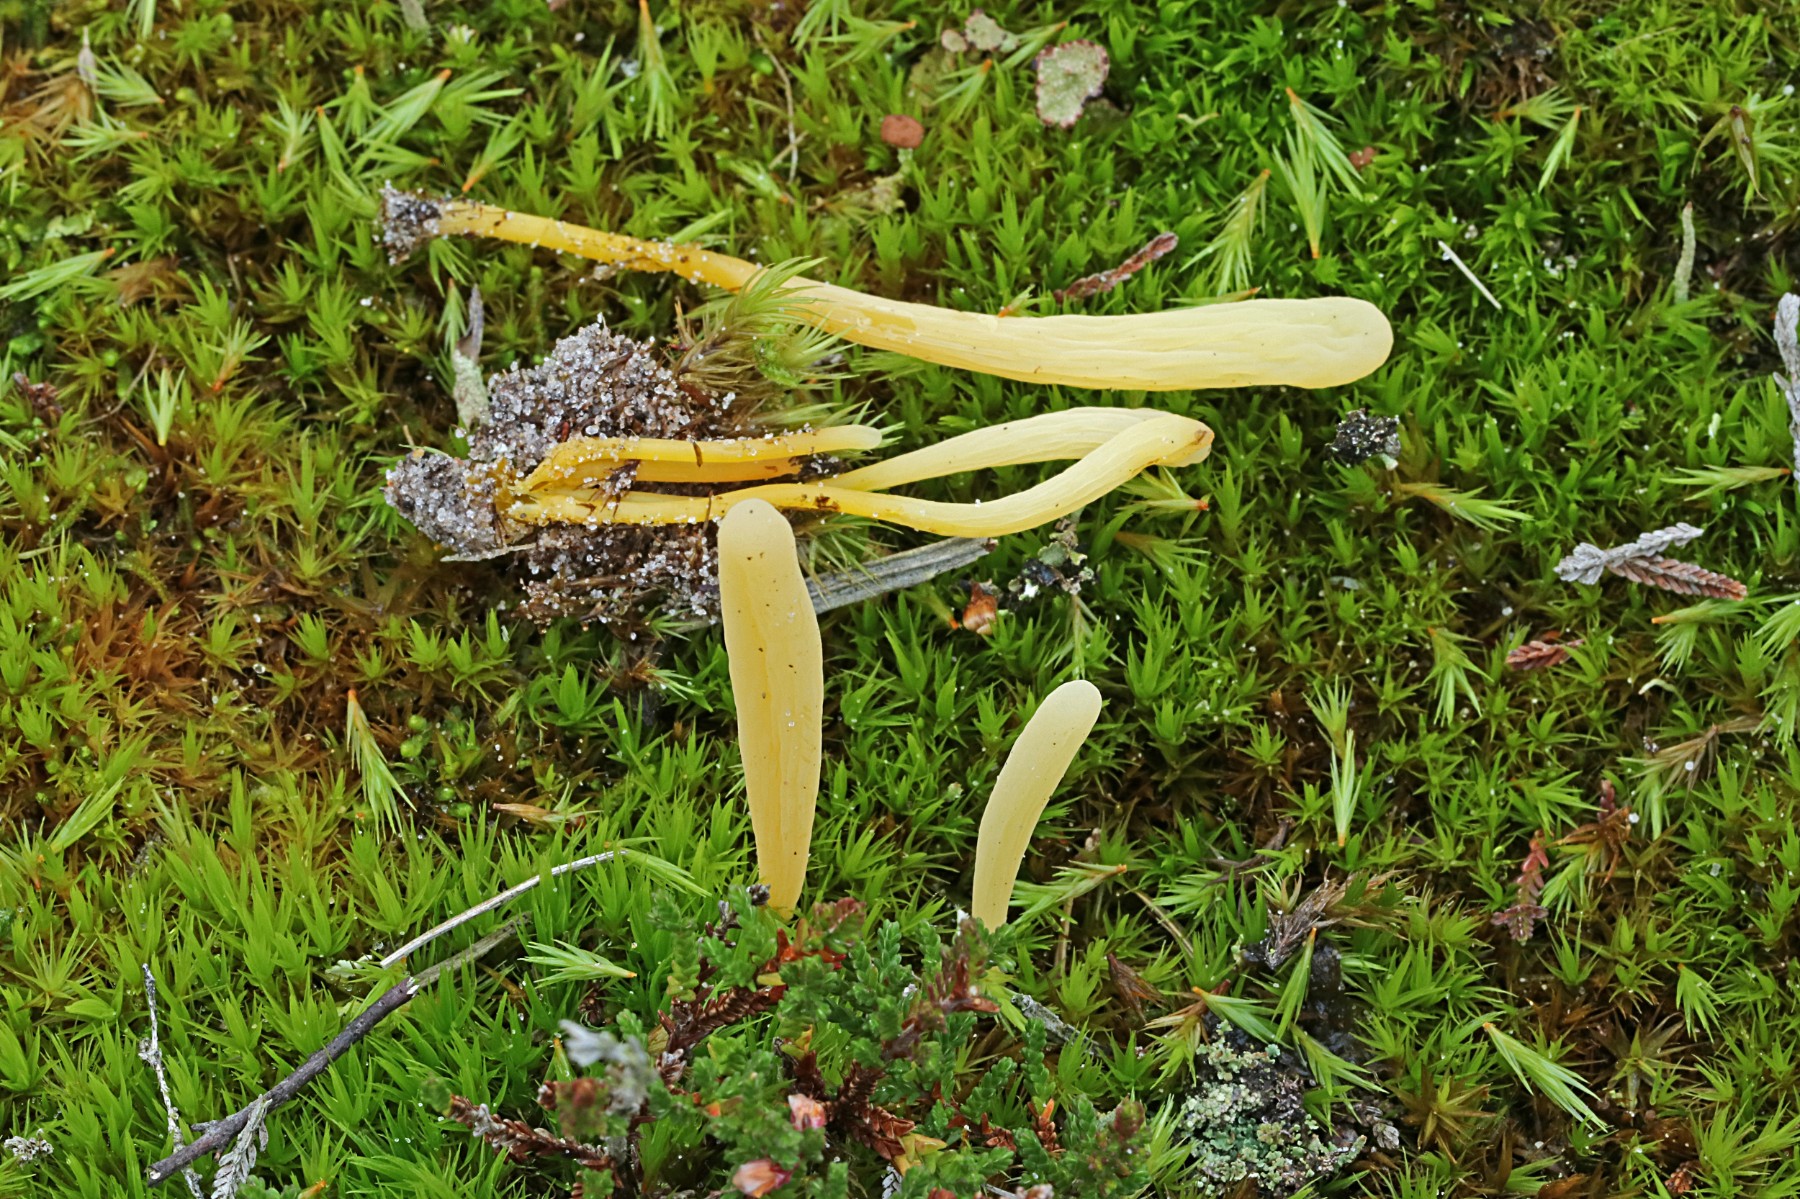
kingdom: Fungi
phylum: Basidiomycota
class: Agaricomycetes
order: Agaricales
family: Clavariaceae
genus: Clavaria
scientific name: Clavaria argillacea
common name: lerfarvet køllesvamp
